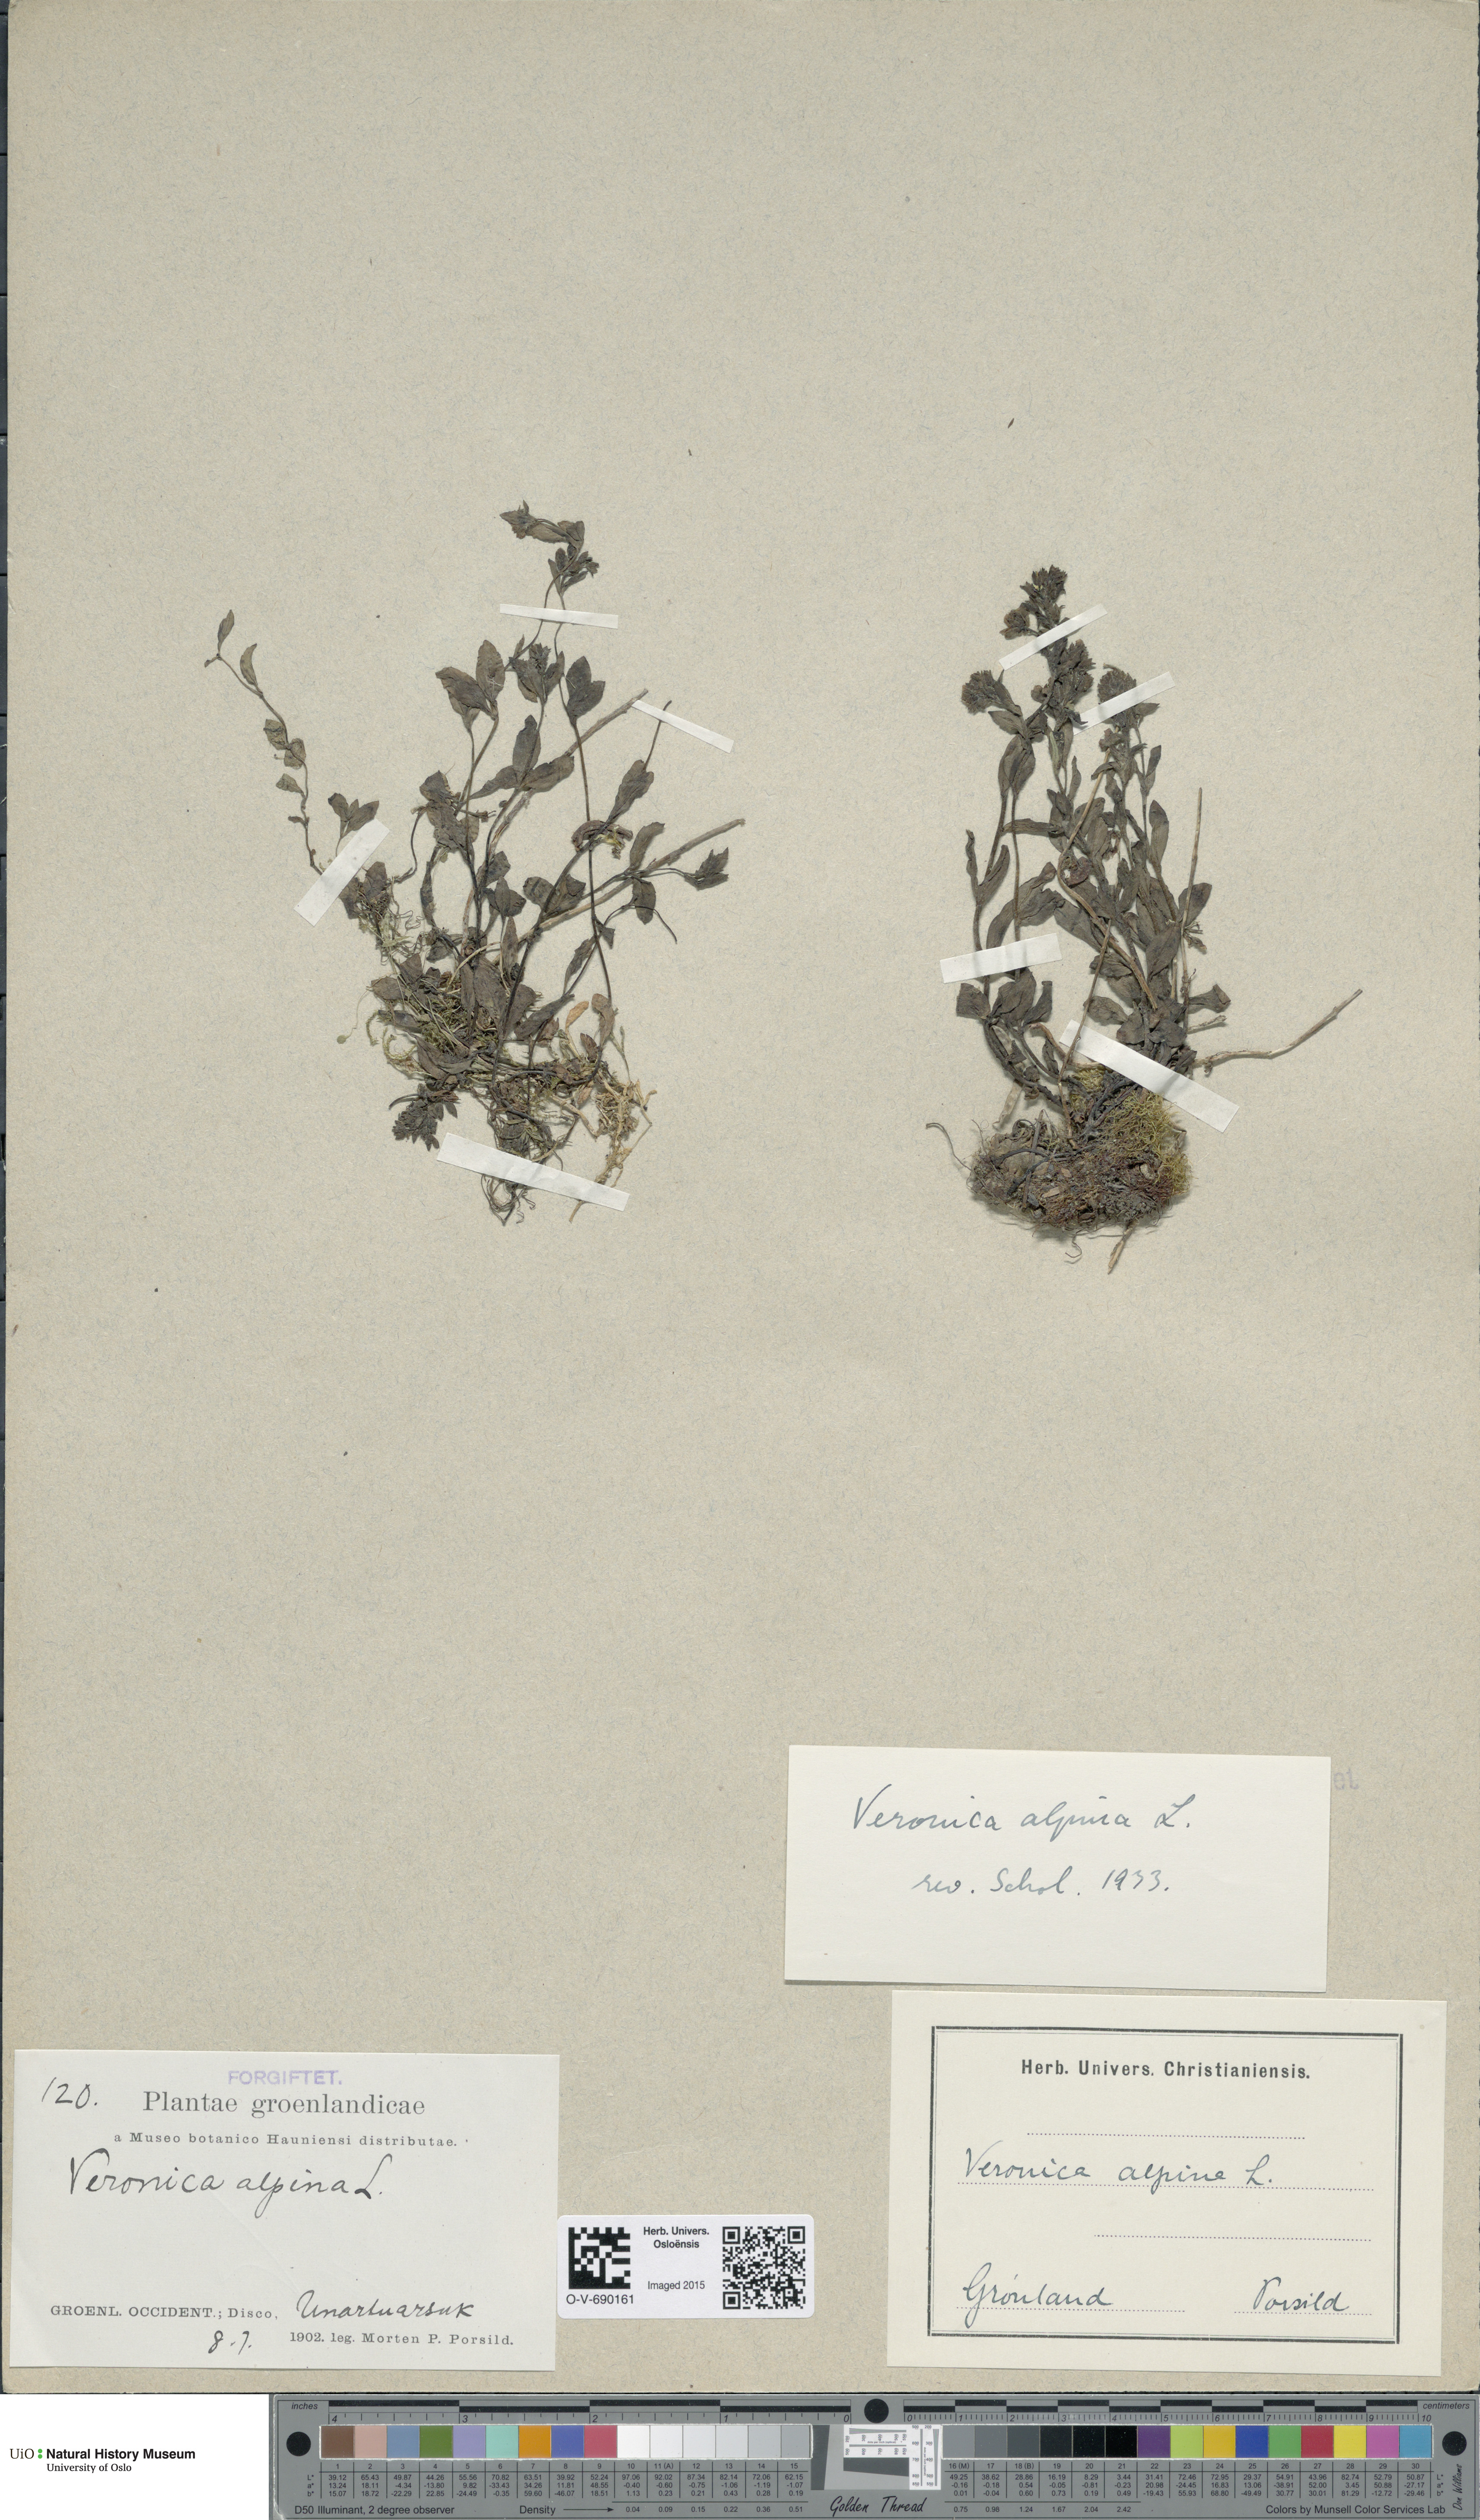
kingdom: Plantae
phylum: Tracheophyta
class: Magnoliopsida
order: Lamiales
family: Plantaginaceae
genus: Veronica
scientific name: Veronica alpina
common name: Alpine speedwell
